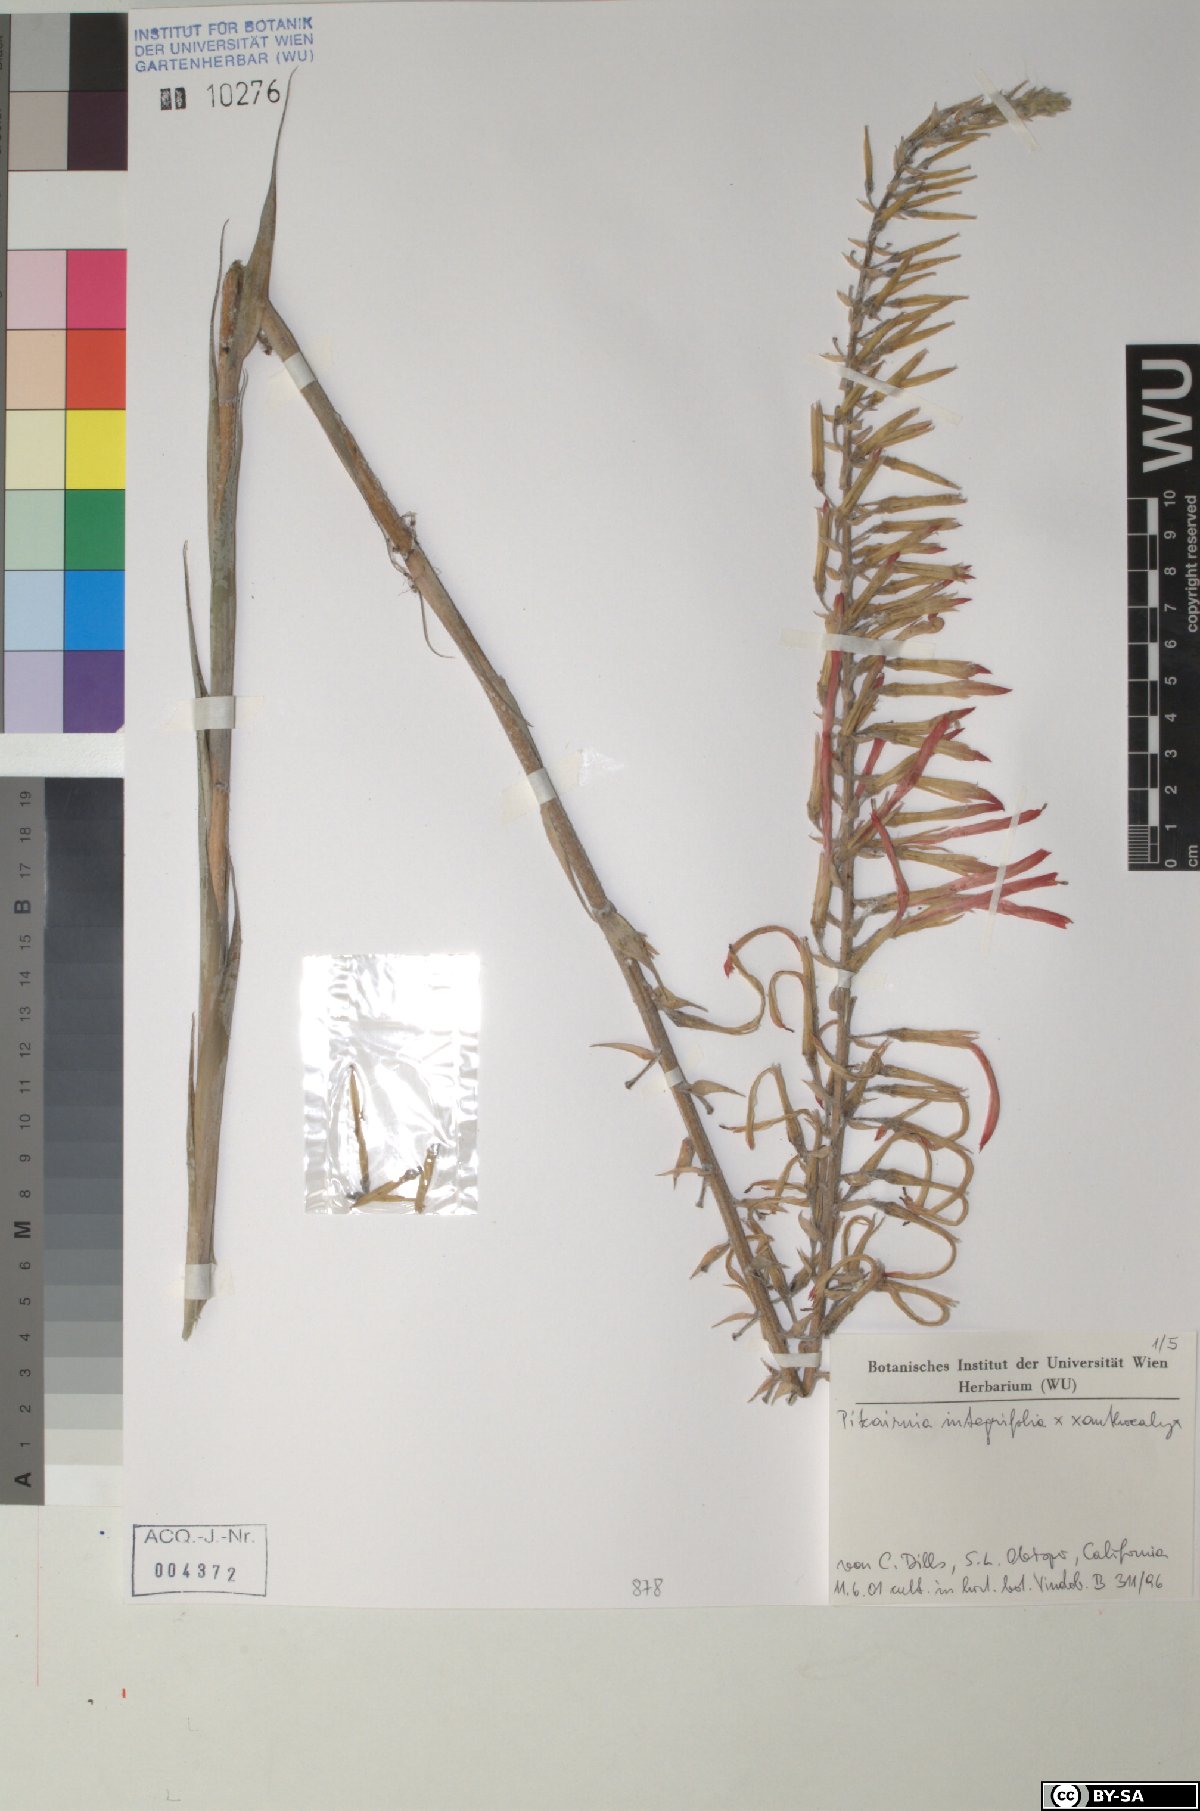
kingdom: Plantae
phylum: Tracheophyta
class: Liliopsida
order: Poales
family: Bromeliaceae
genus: Pitcairnia
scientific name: Pitcairnia integrifolia
